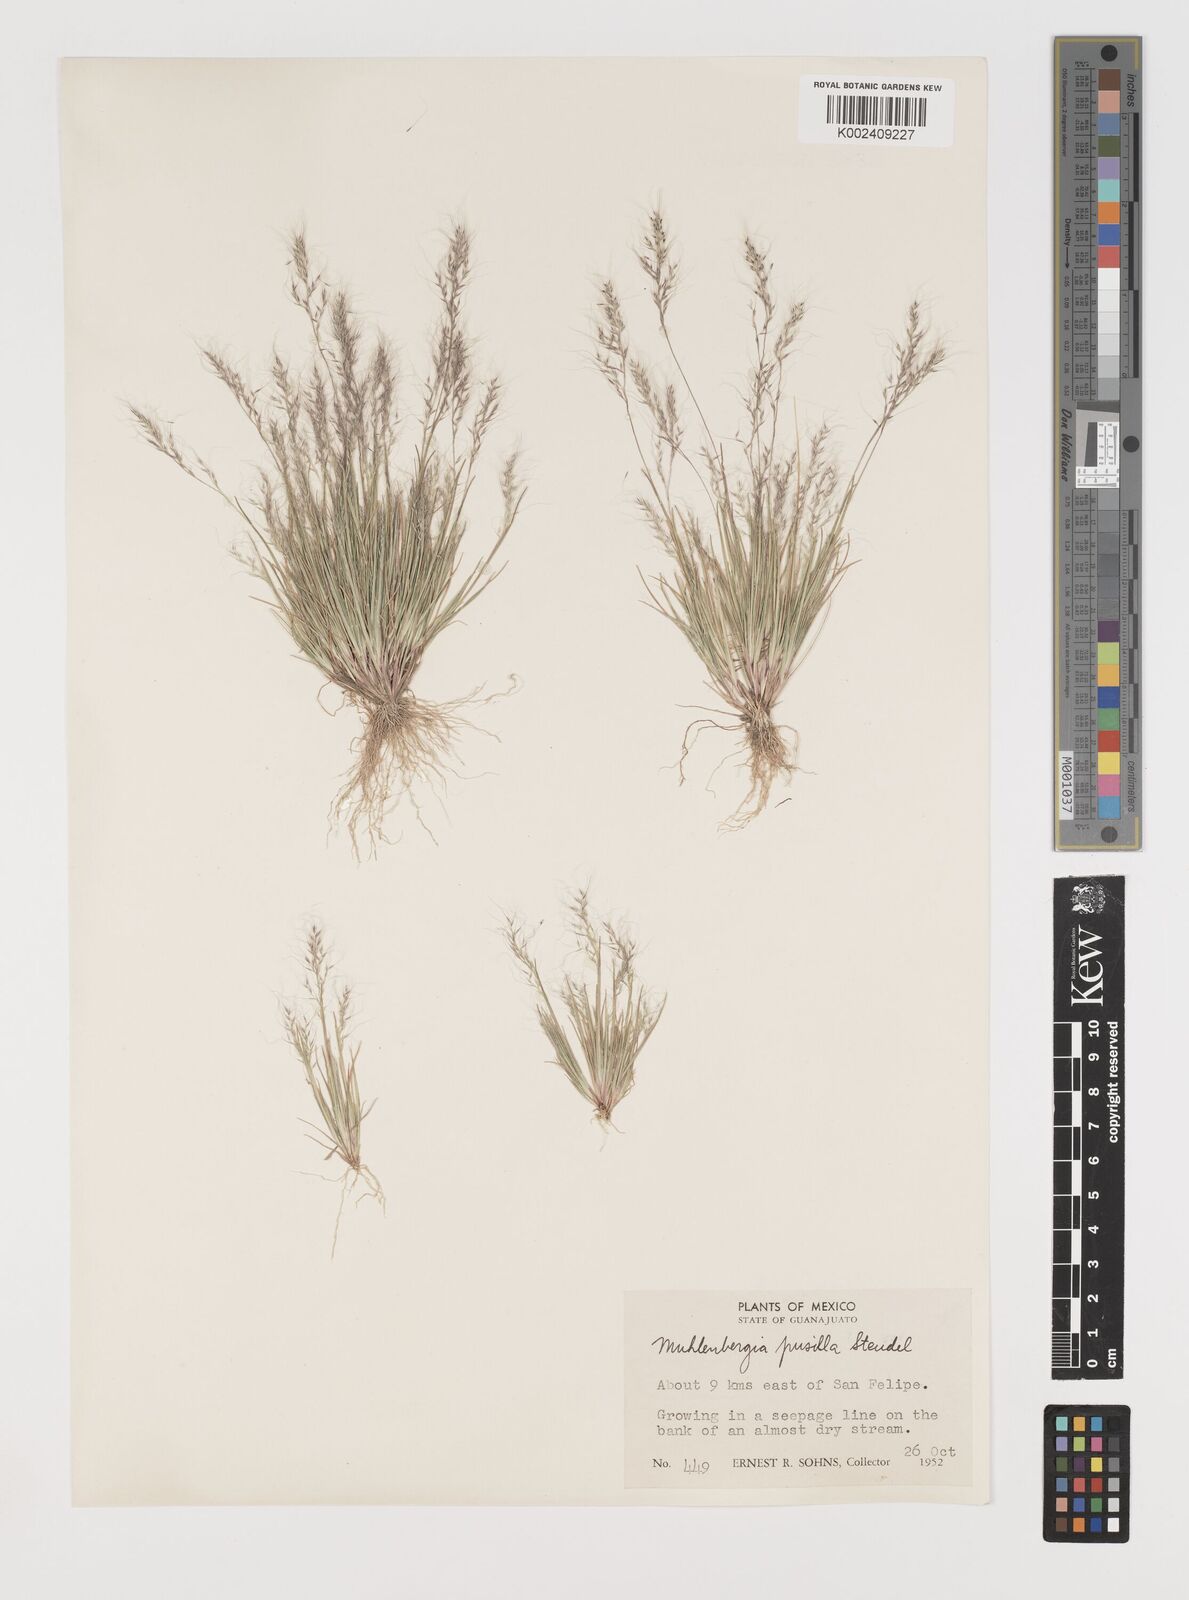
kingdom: Plantae
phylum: Tracheophyta
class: Liliopsida
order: Poales
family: Poaceae
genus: Muhlenbergia
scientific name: Muhlenbergia peruviana
